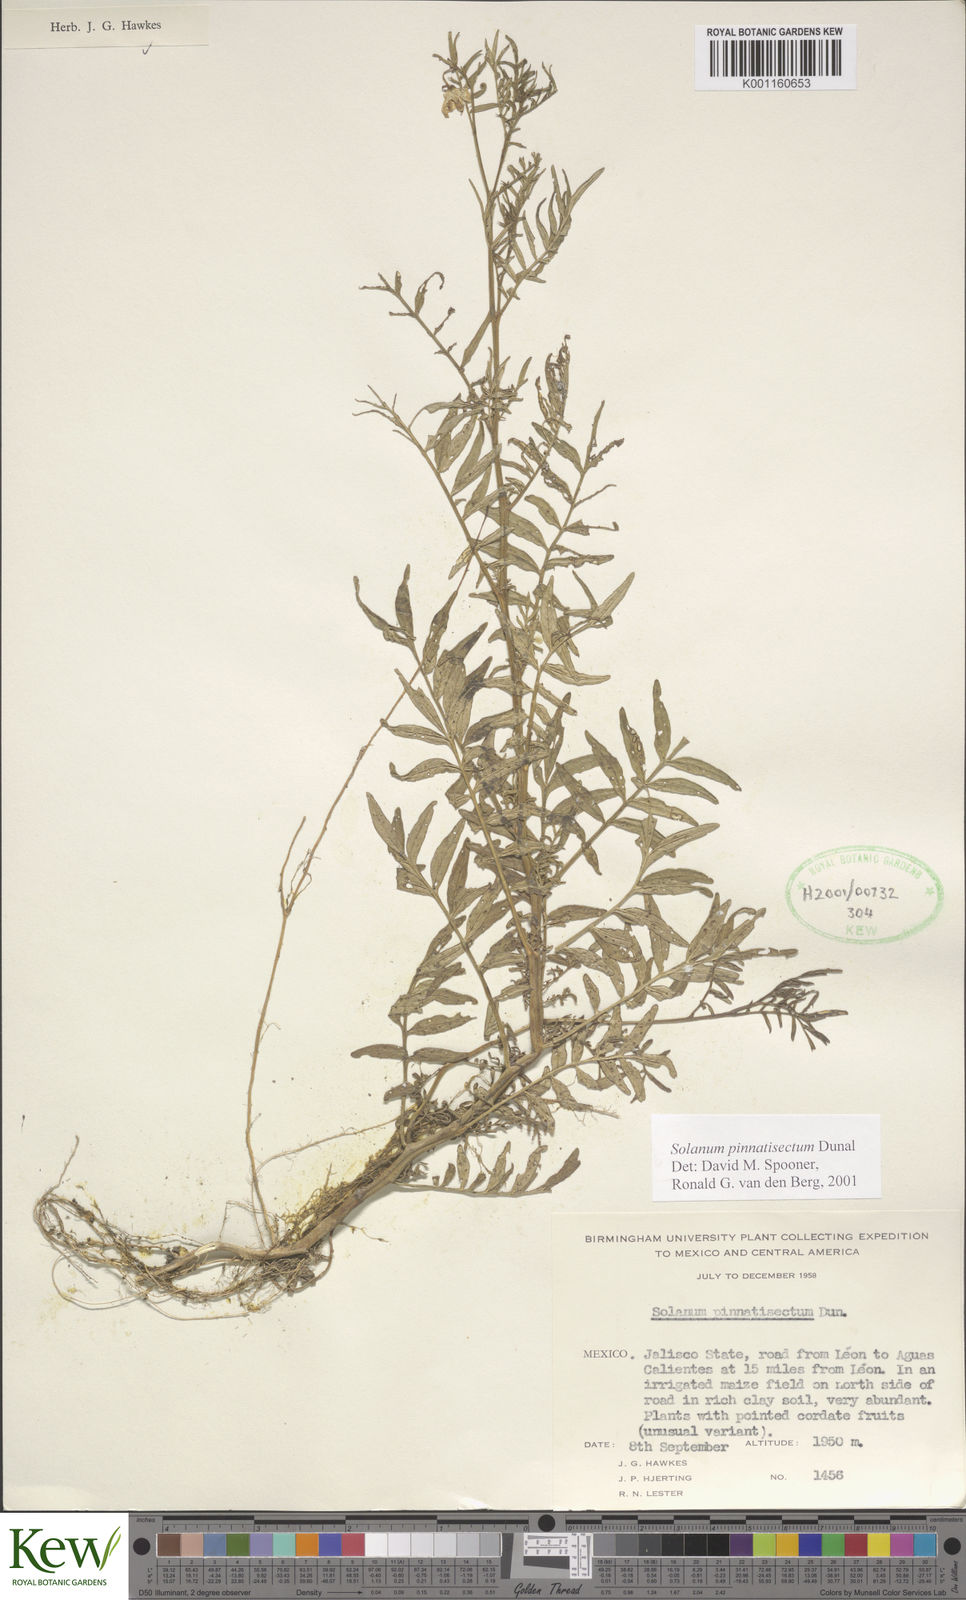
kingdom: Plantae
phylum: Tracheophyta
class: Magnoliopsida
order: Solanales
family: Solanaceae
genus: Solanum
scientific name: Solanum pinnatisectum
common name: Tansyleaf nightshade
